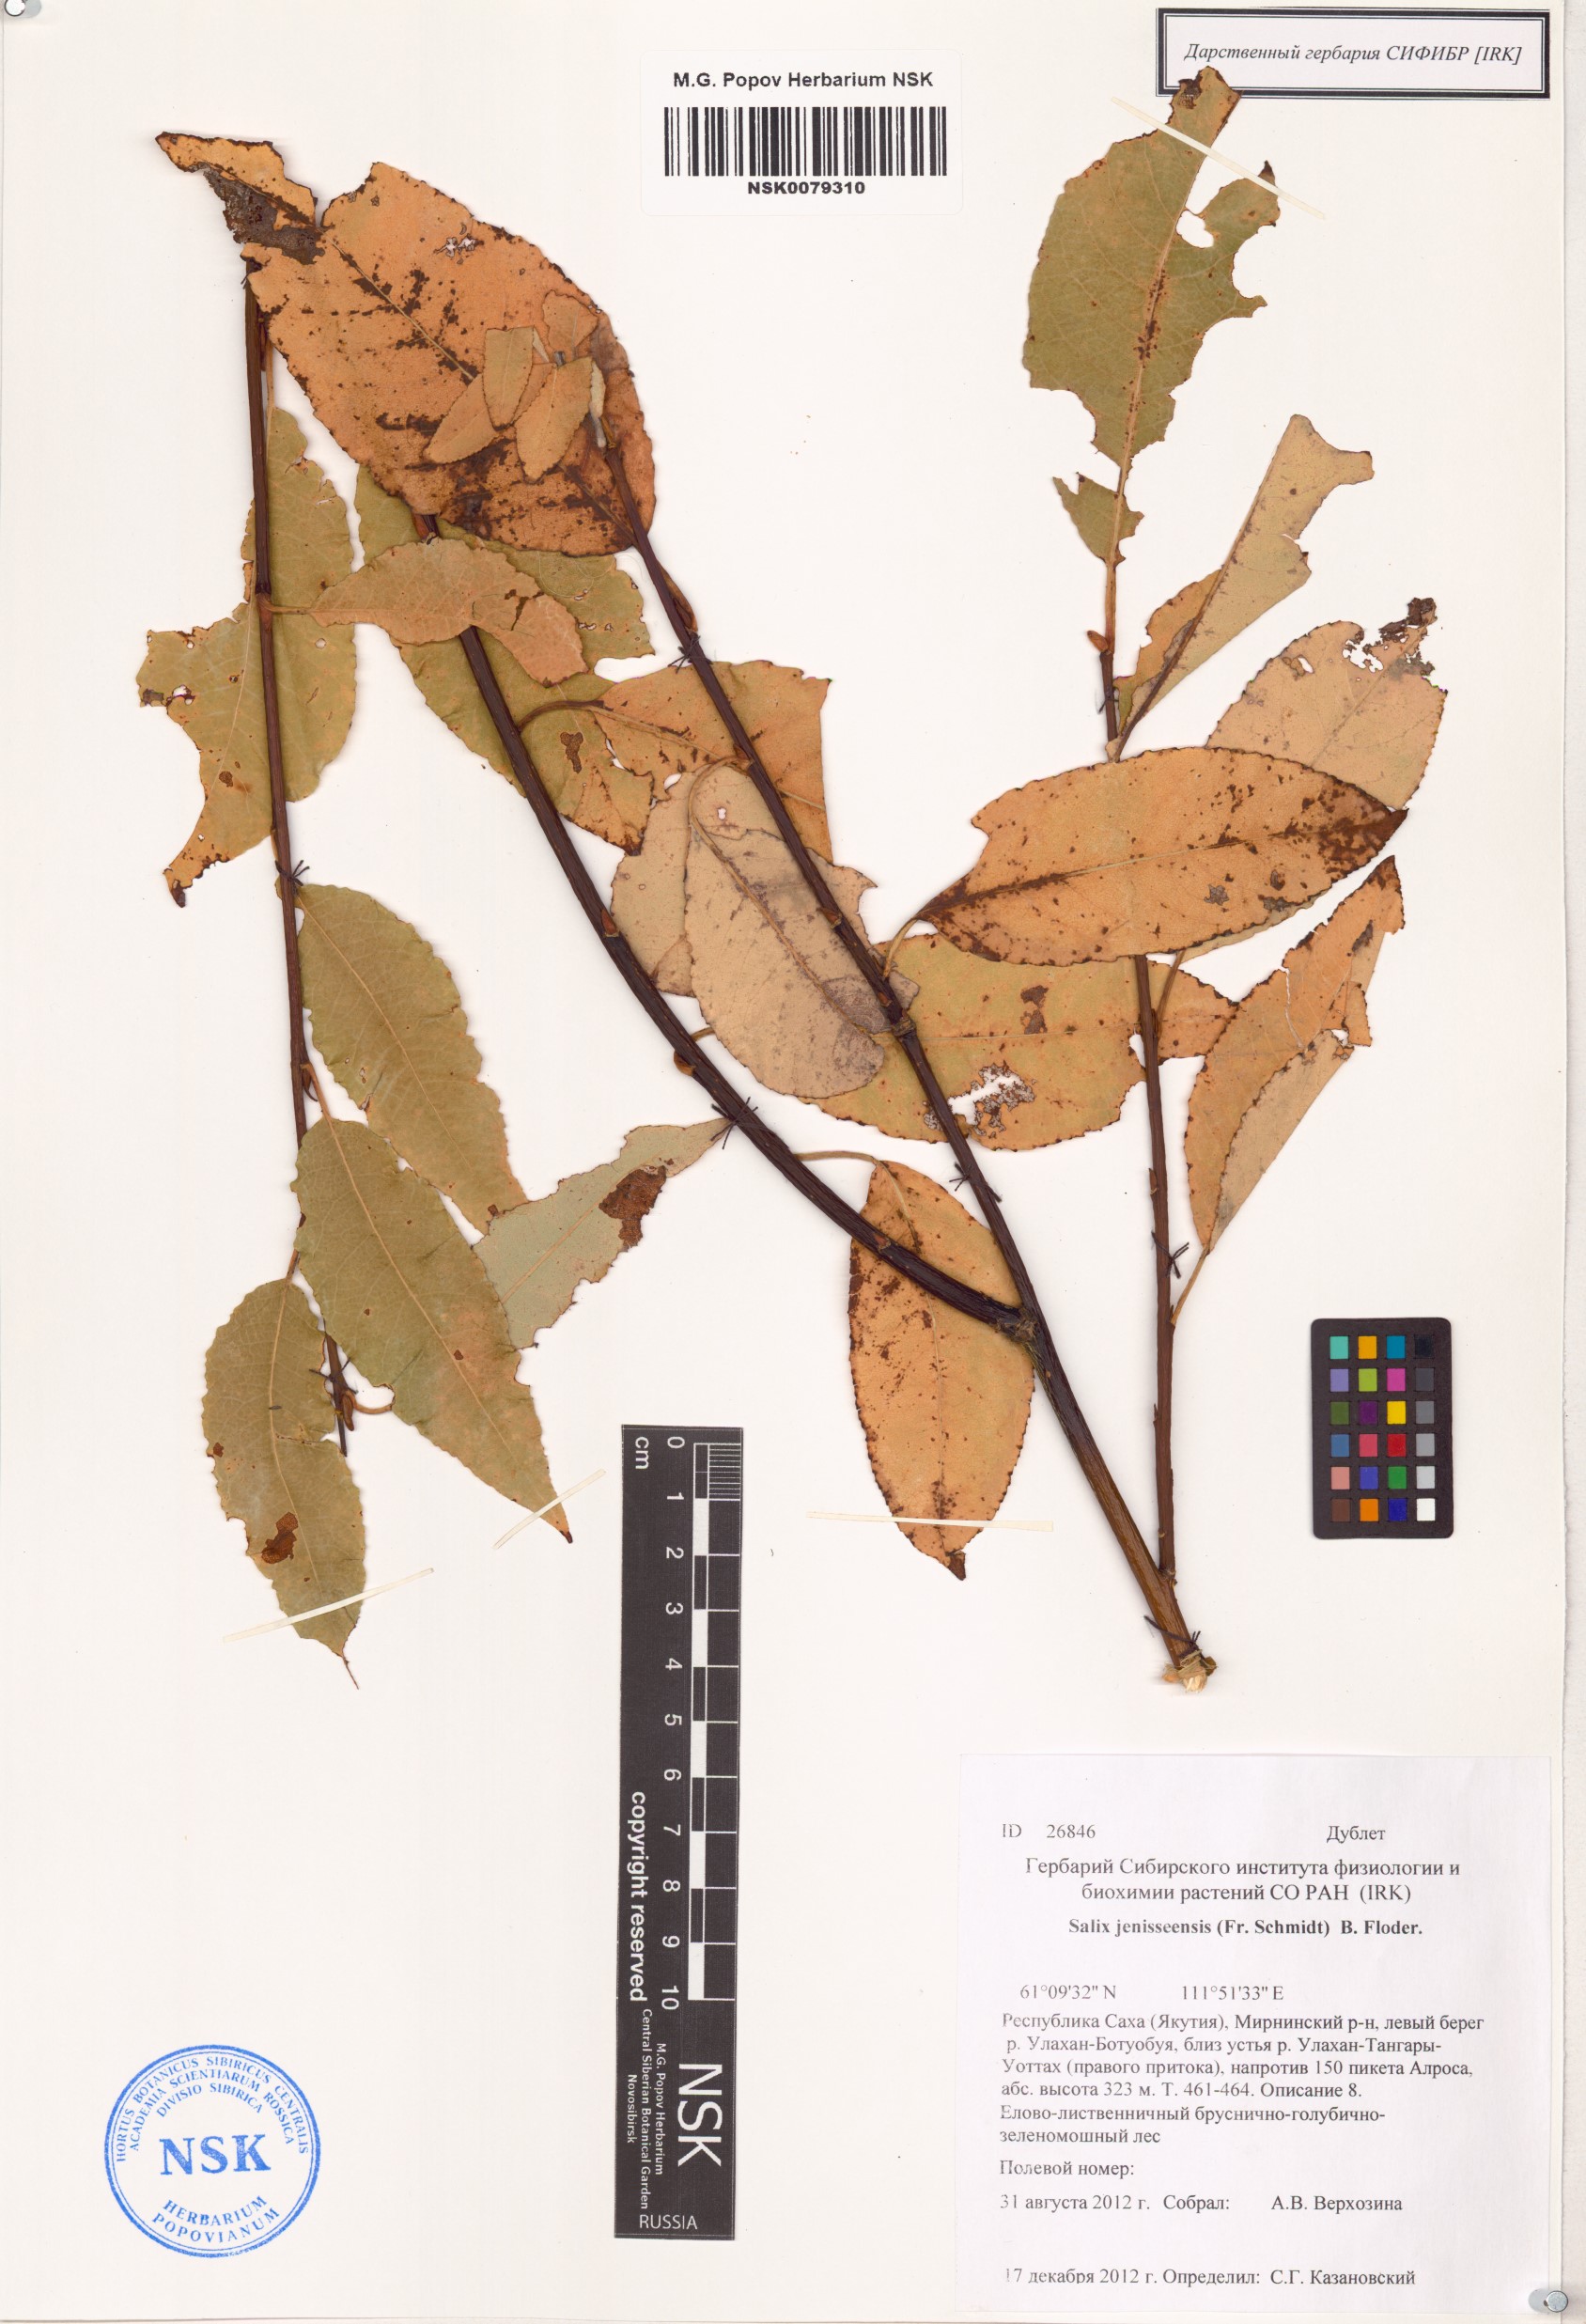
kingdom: Plantae
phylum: Tracheophyta
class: Magnoliopsida
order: Malpighiales
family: Salicaceae
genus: Salix
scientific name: Salix jenisseensis
